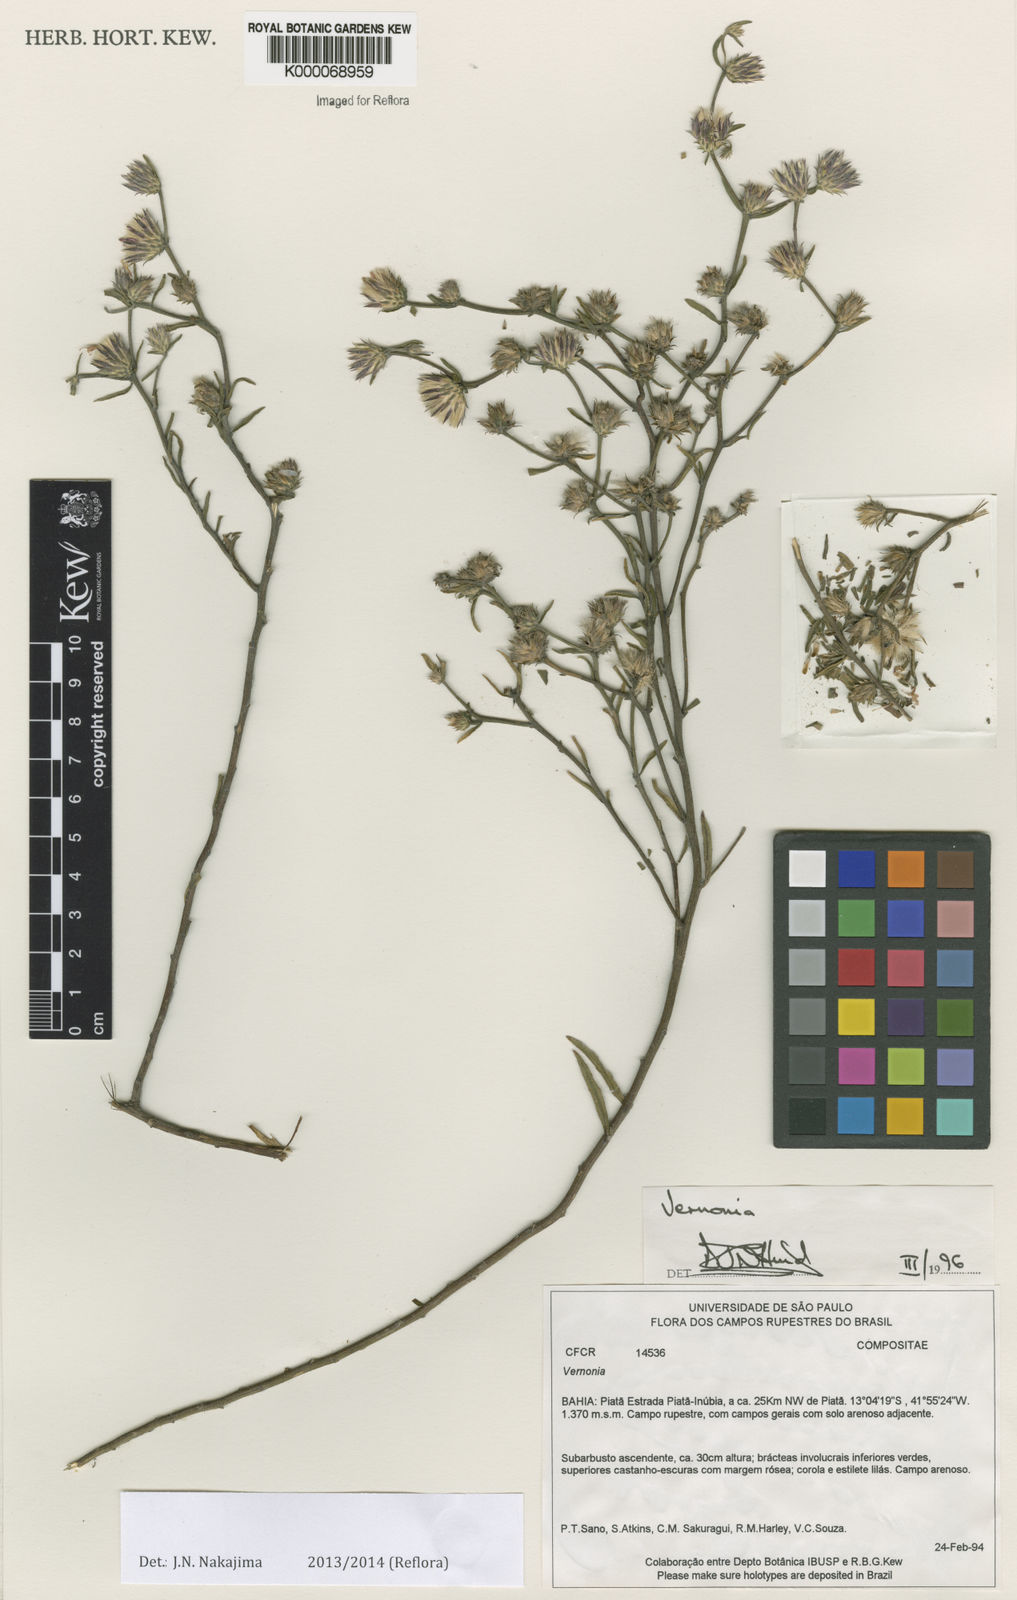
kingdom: Plantae
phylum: Tracheophyta
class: Magnoliopsida
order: Asterales
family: Asteraceae
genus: Vernonia
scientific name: Vernonia
